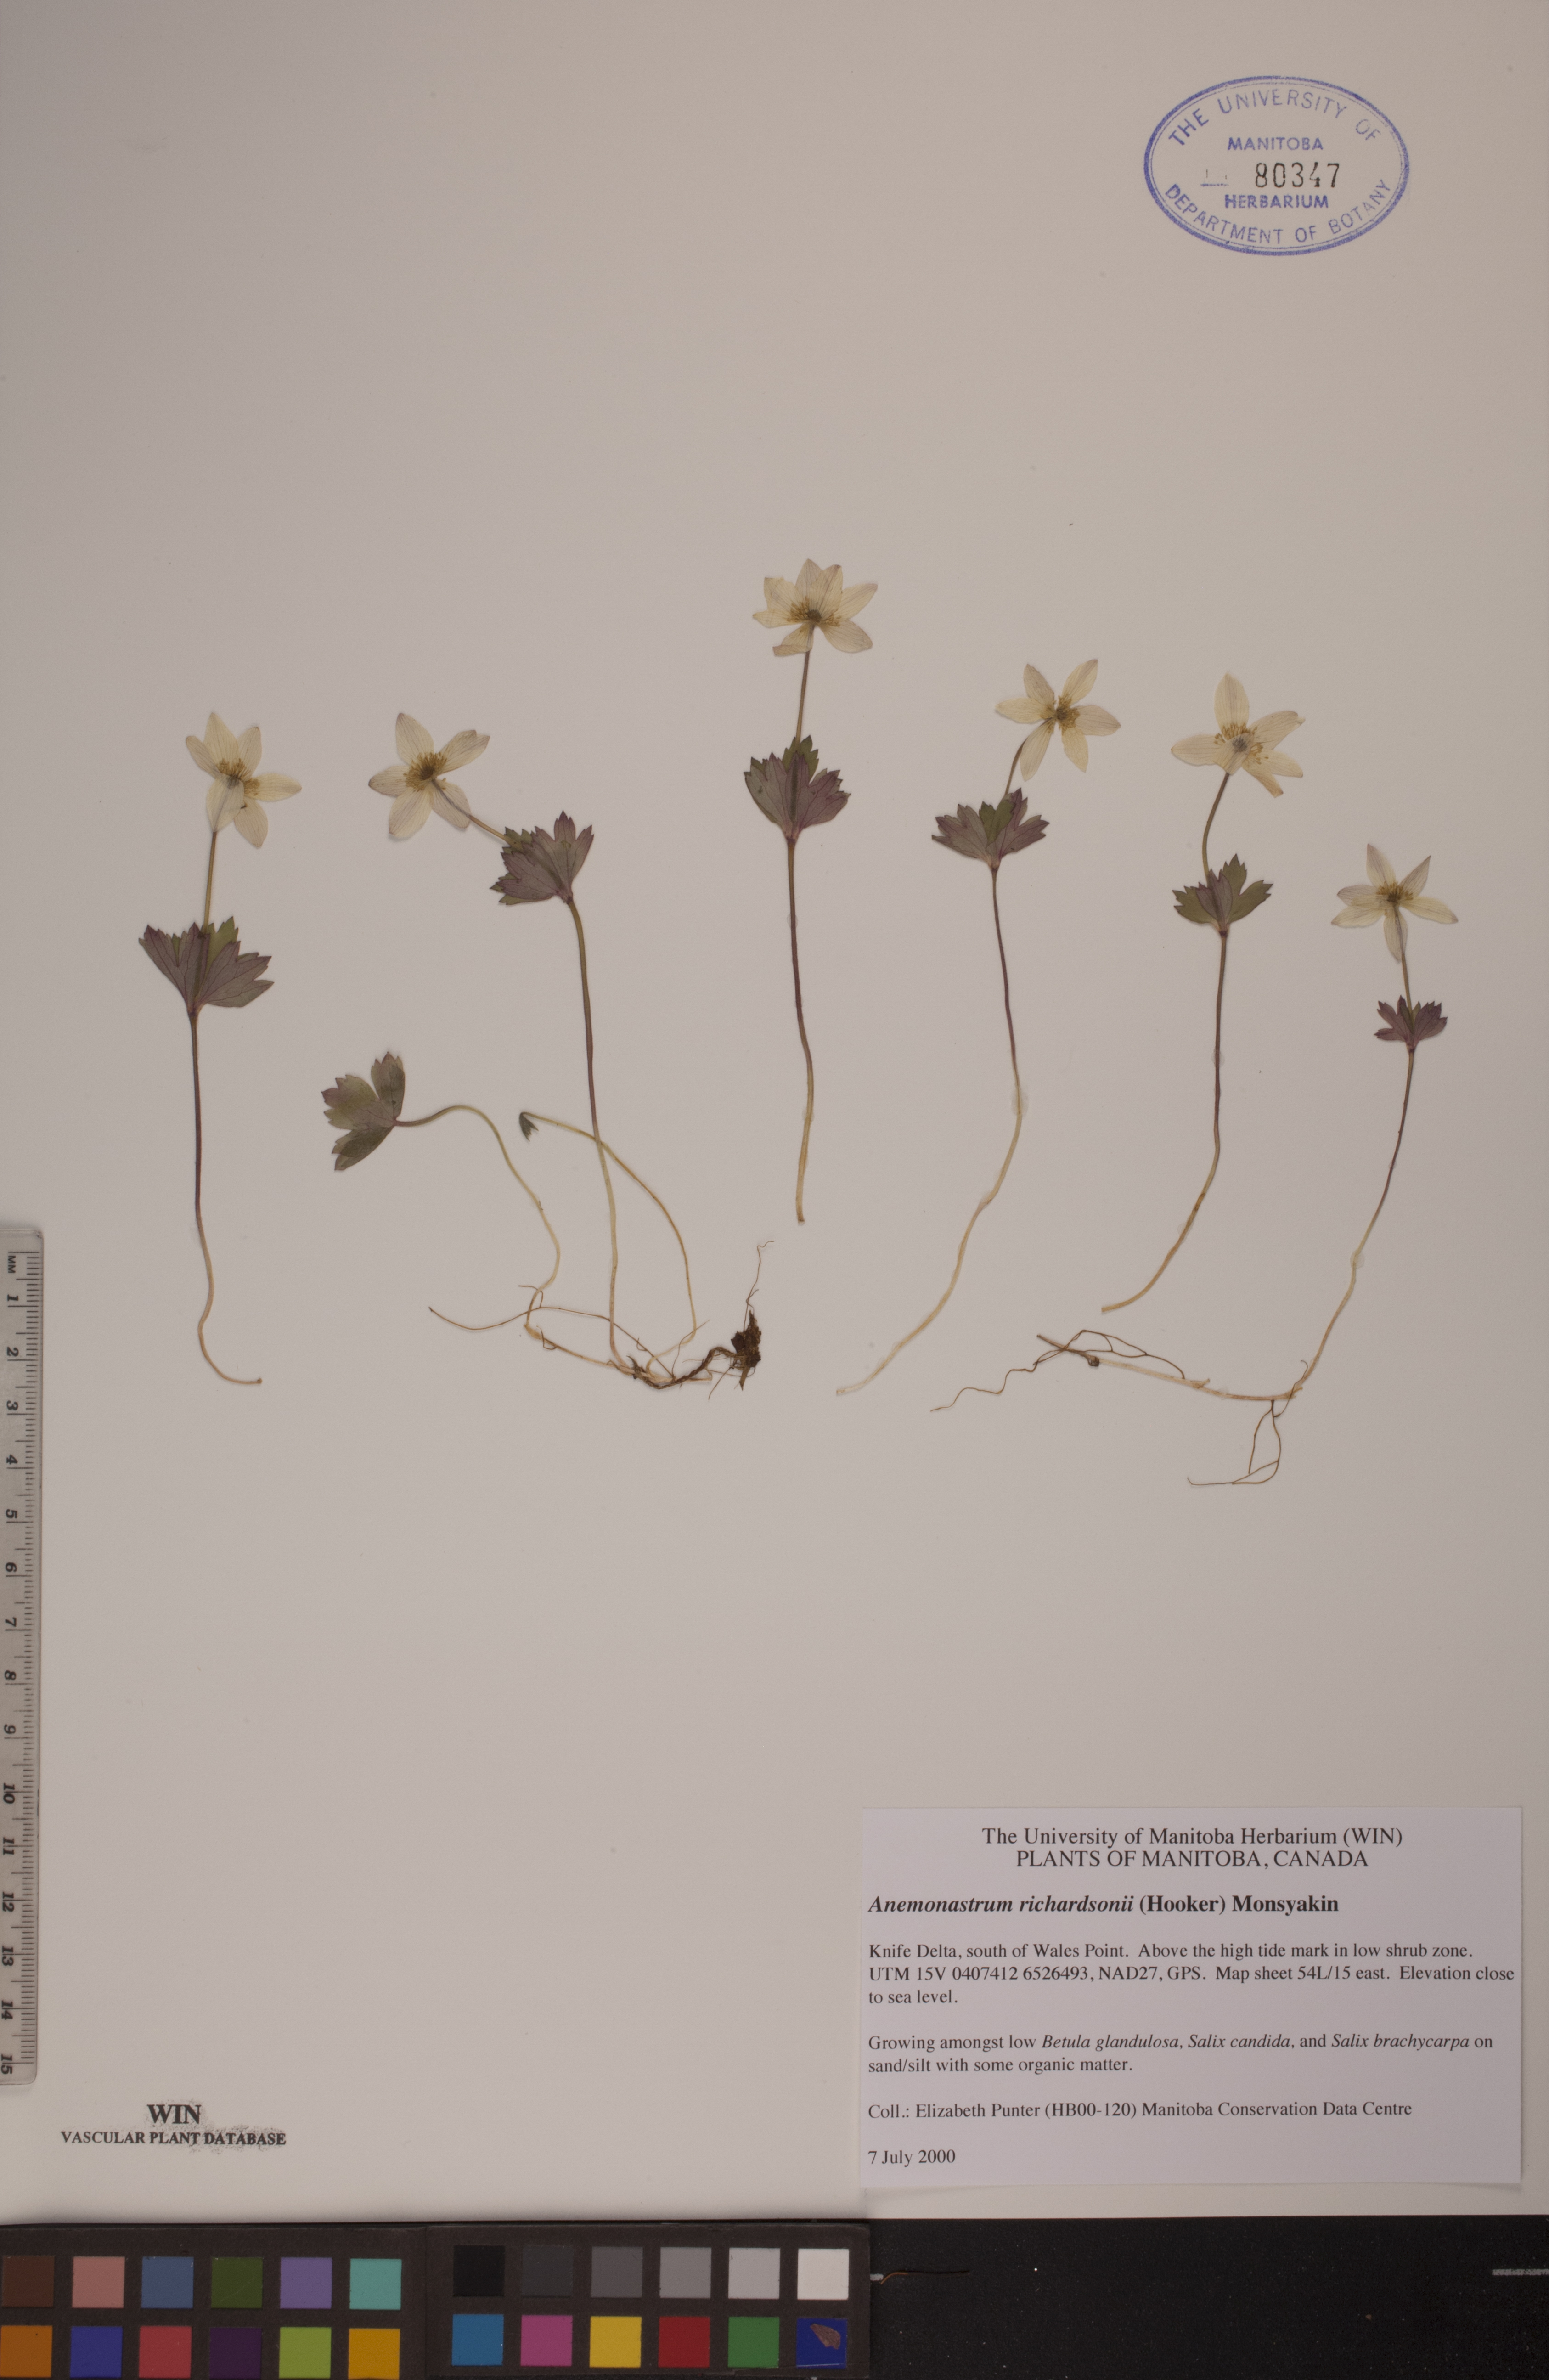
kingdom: Plantae
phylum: Tracheophyta
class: Magnoliopsida
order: Ranunculales
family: Ranunculaceae
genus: Anemonastrum
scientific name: Anemonastrum richardsonii
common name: Richardson's anemone
